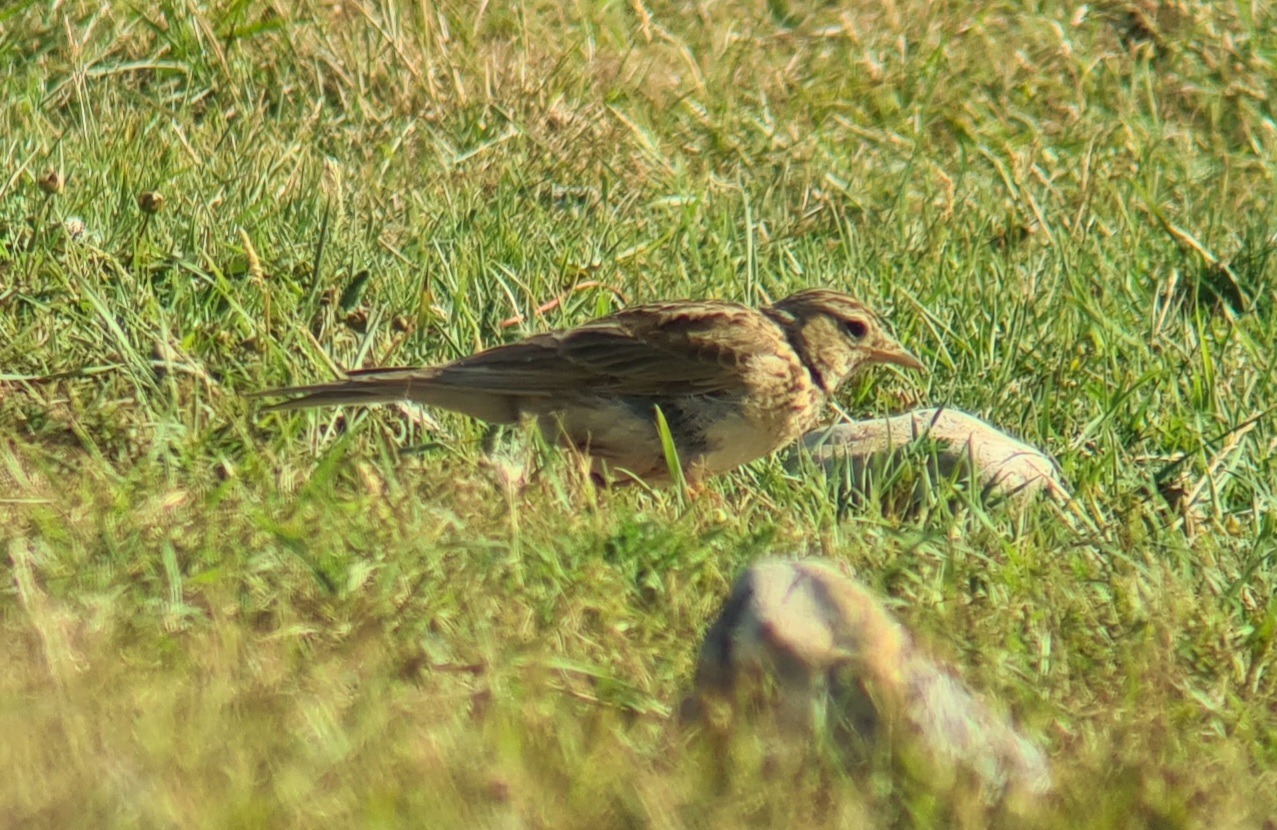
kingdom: Animalia
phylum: Chordata
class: Aves
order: Passeriformes
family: Alaudidae
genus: Alauda
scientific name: Alauda arvensis
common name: Sanglærke
